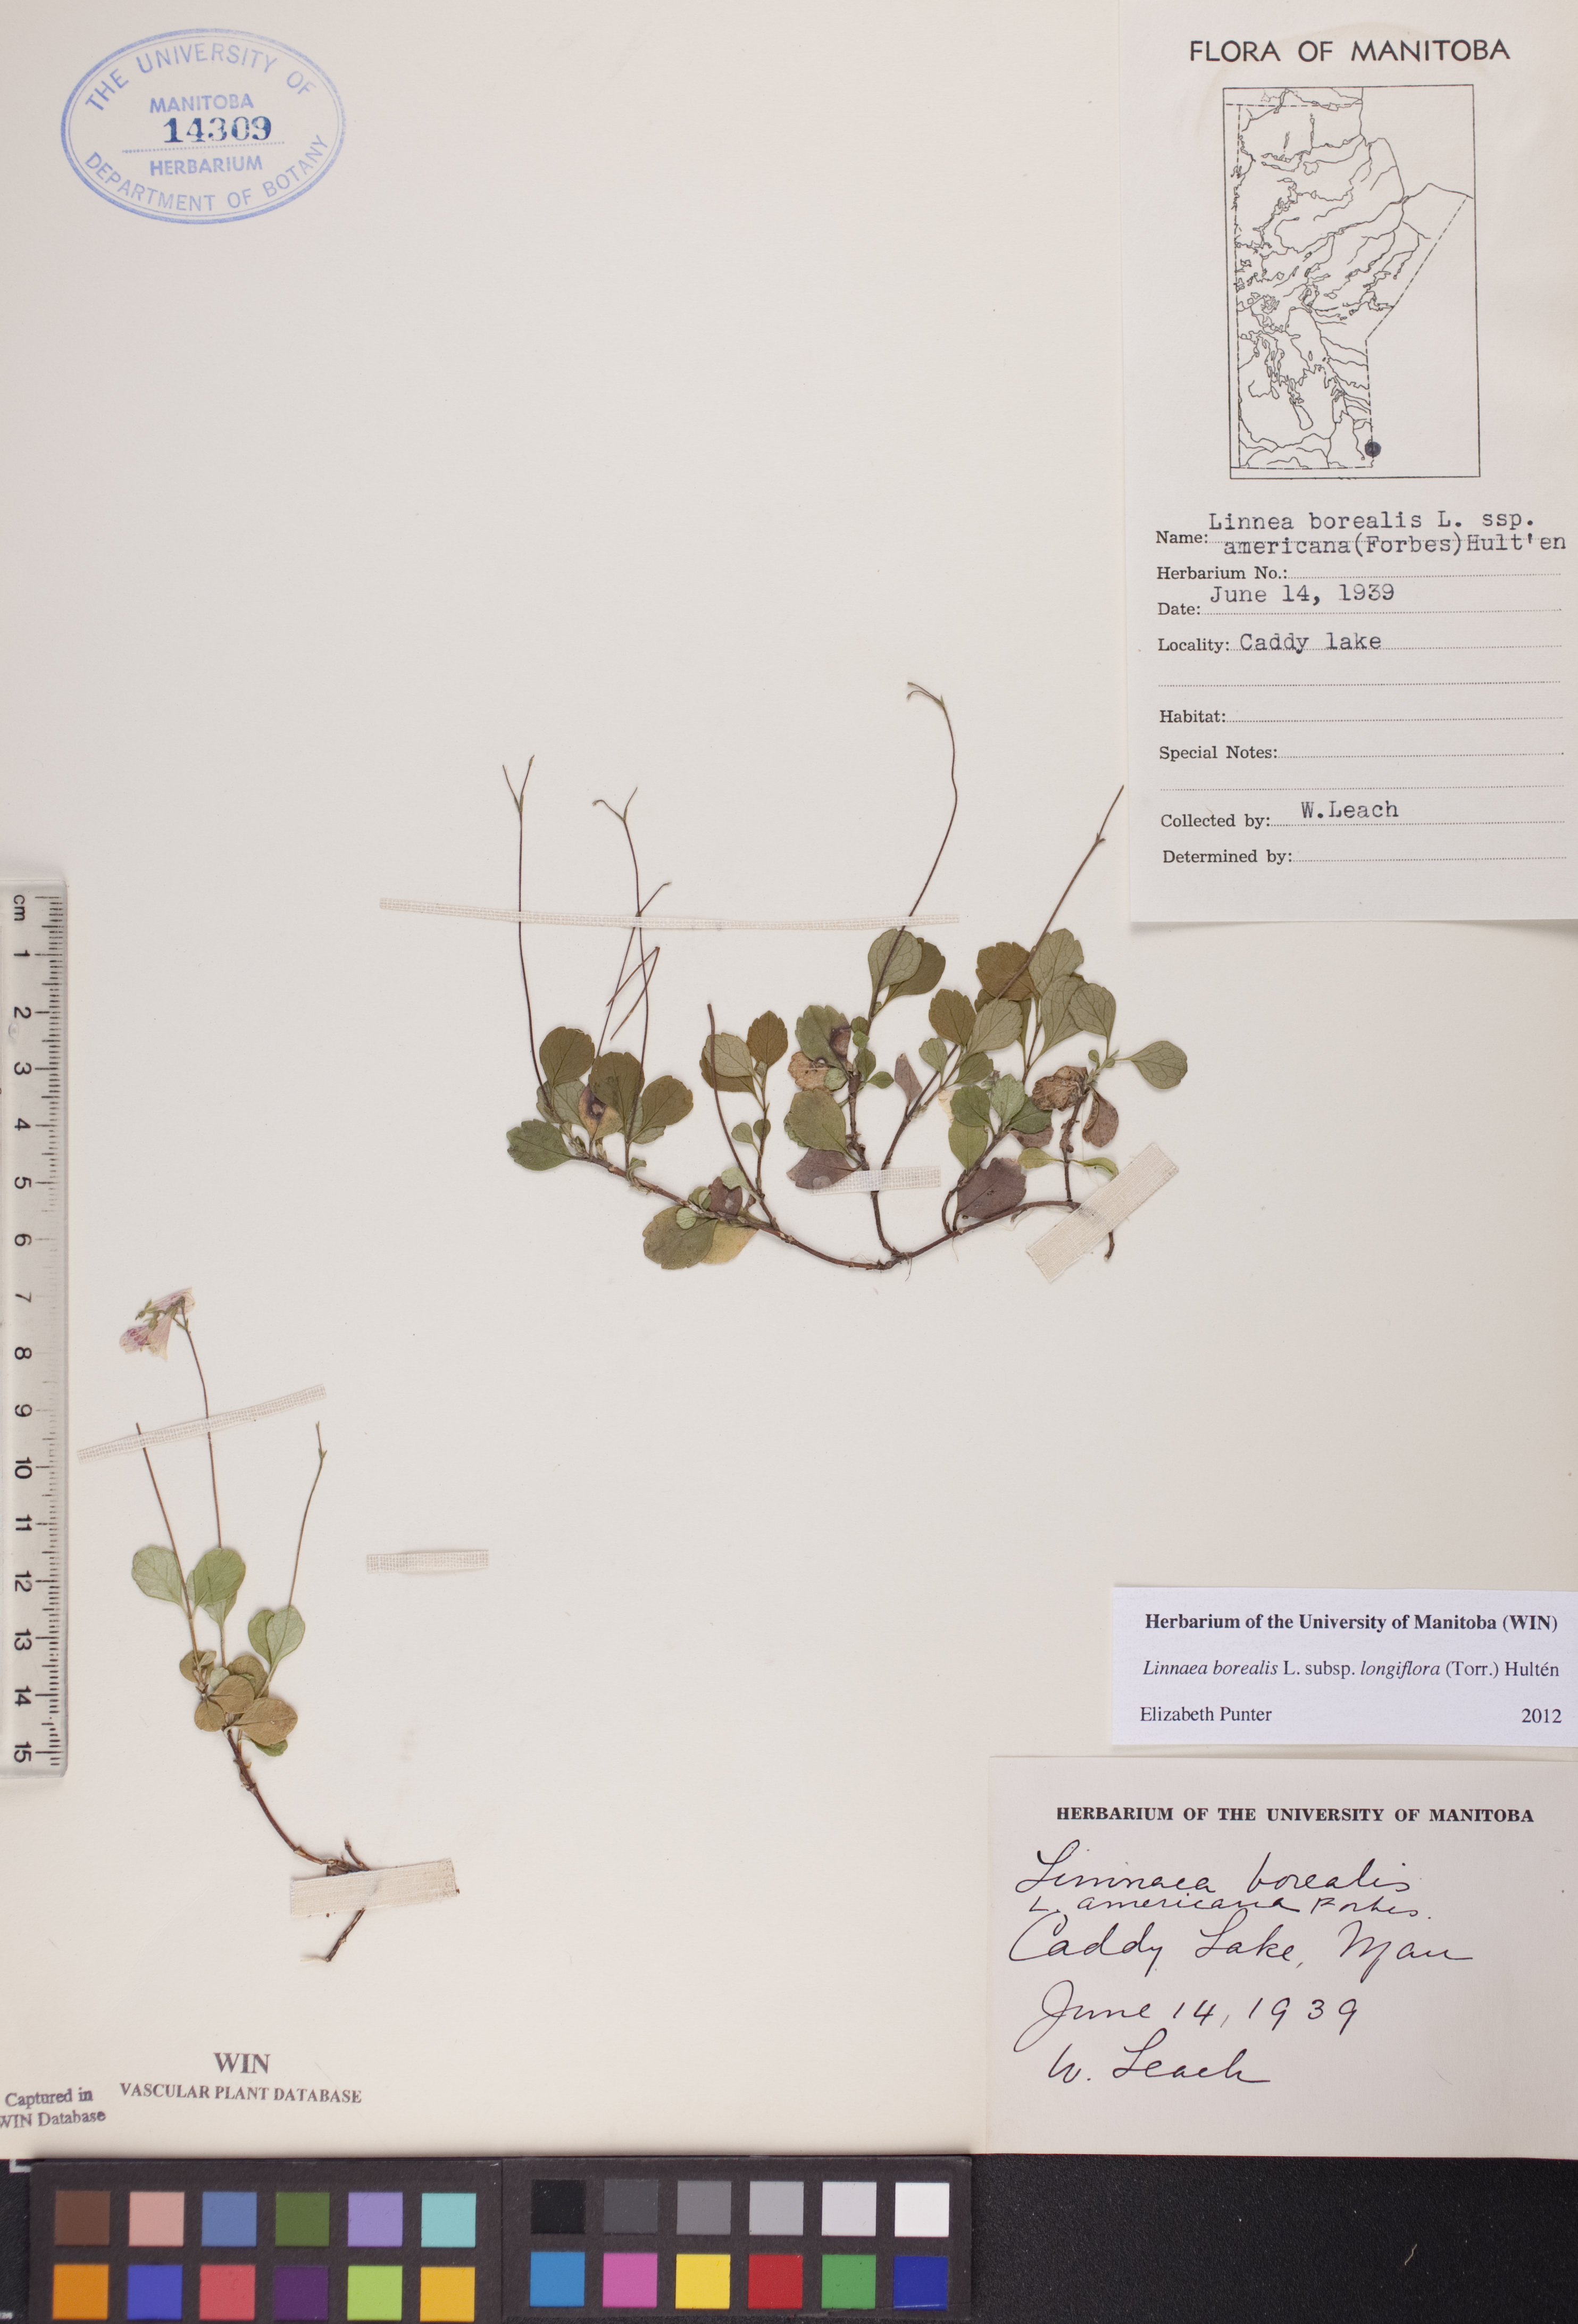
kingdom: Plantae
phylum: Tracheophyta
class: Magnoliopsida
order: Dipsacales
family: Caprifoliaceae
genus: Linnaea
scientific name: Linnaea borealis
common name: Twinflower
